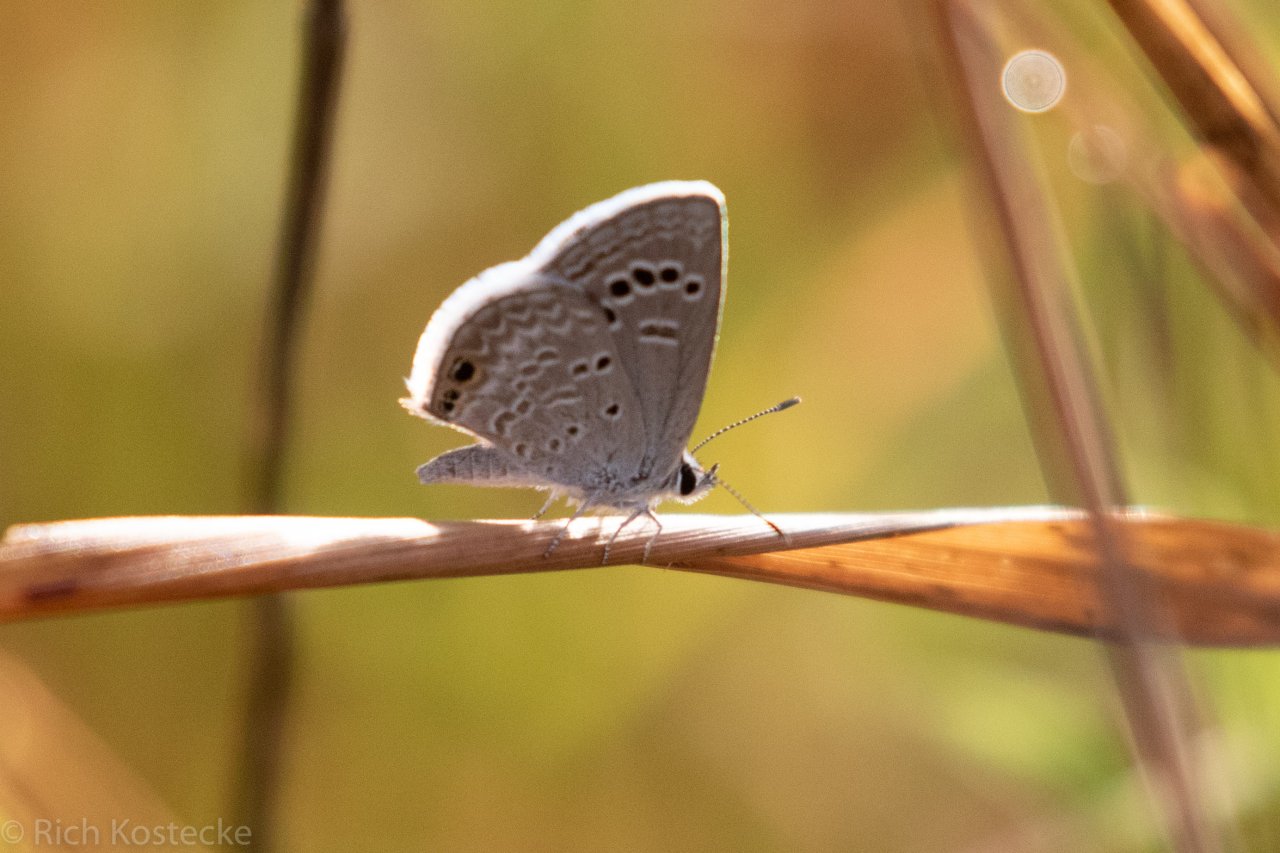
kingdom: Animalia
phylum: Arthropoda
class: Insecta
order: Lepidoptera
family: Lycaenidae
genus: Echinargus
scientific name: Echinargus isola
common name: Reakirt's Blue
